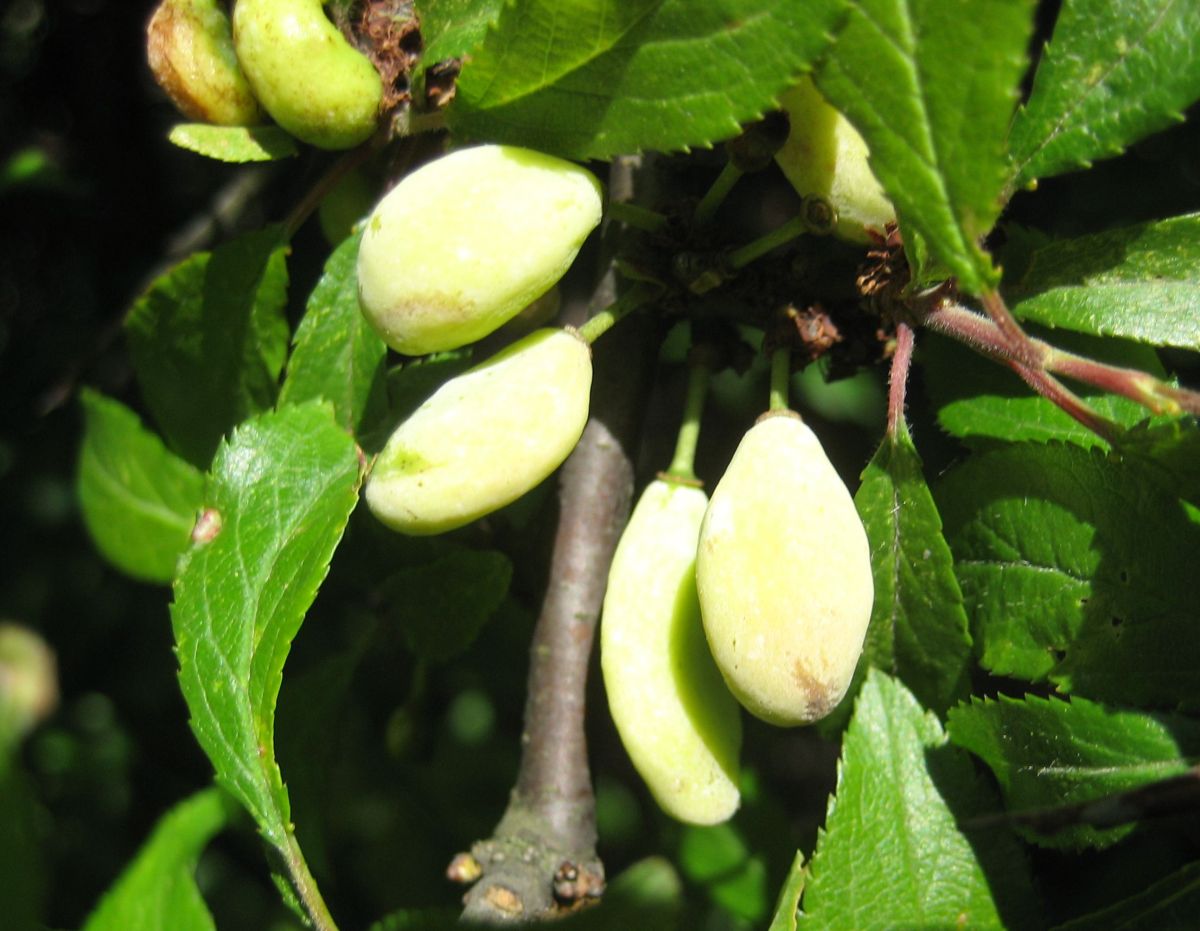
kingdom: Fungi
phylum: Ascomycota
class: Taphrinomycetes
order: Taphrinales
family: Taphrinaceae
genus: Taphrina
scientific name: Taphrina pruni
